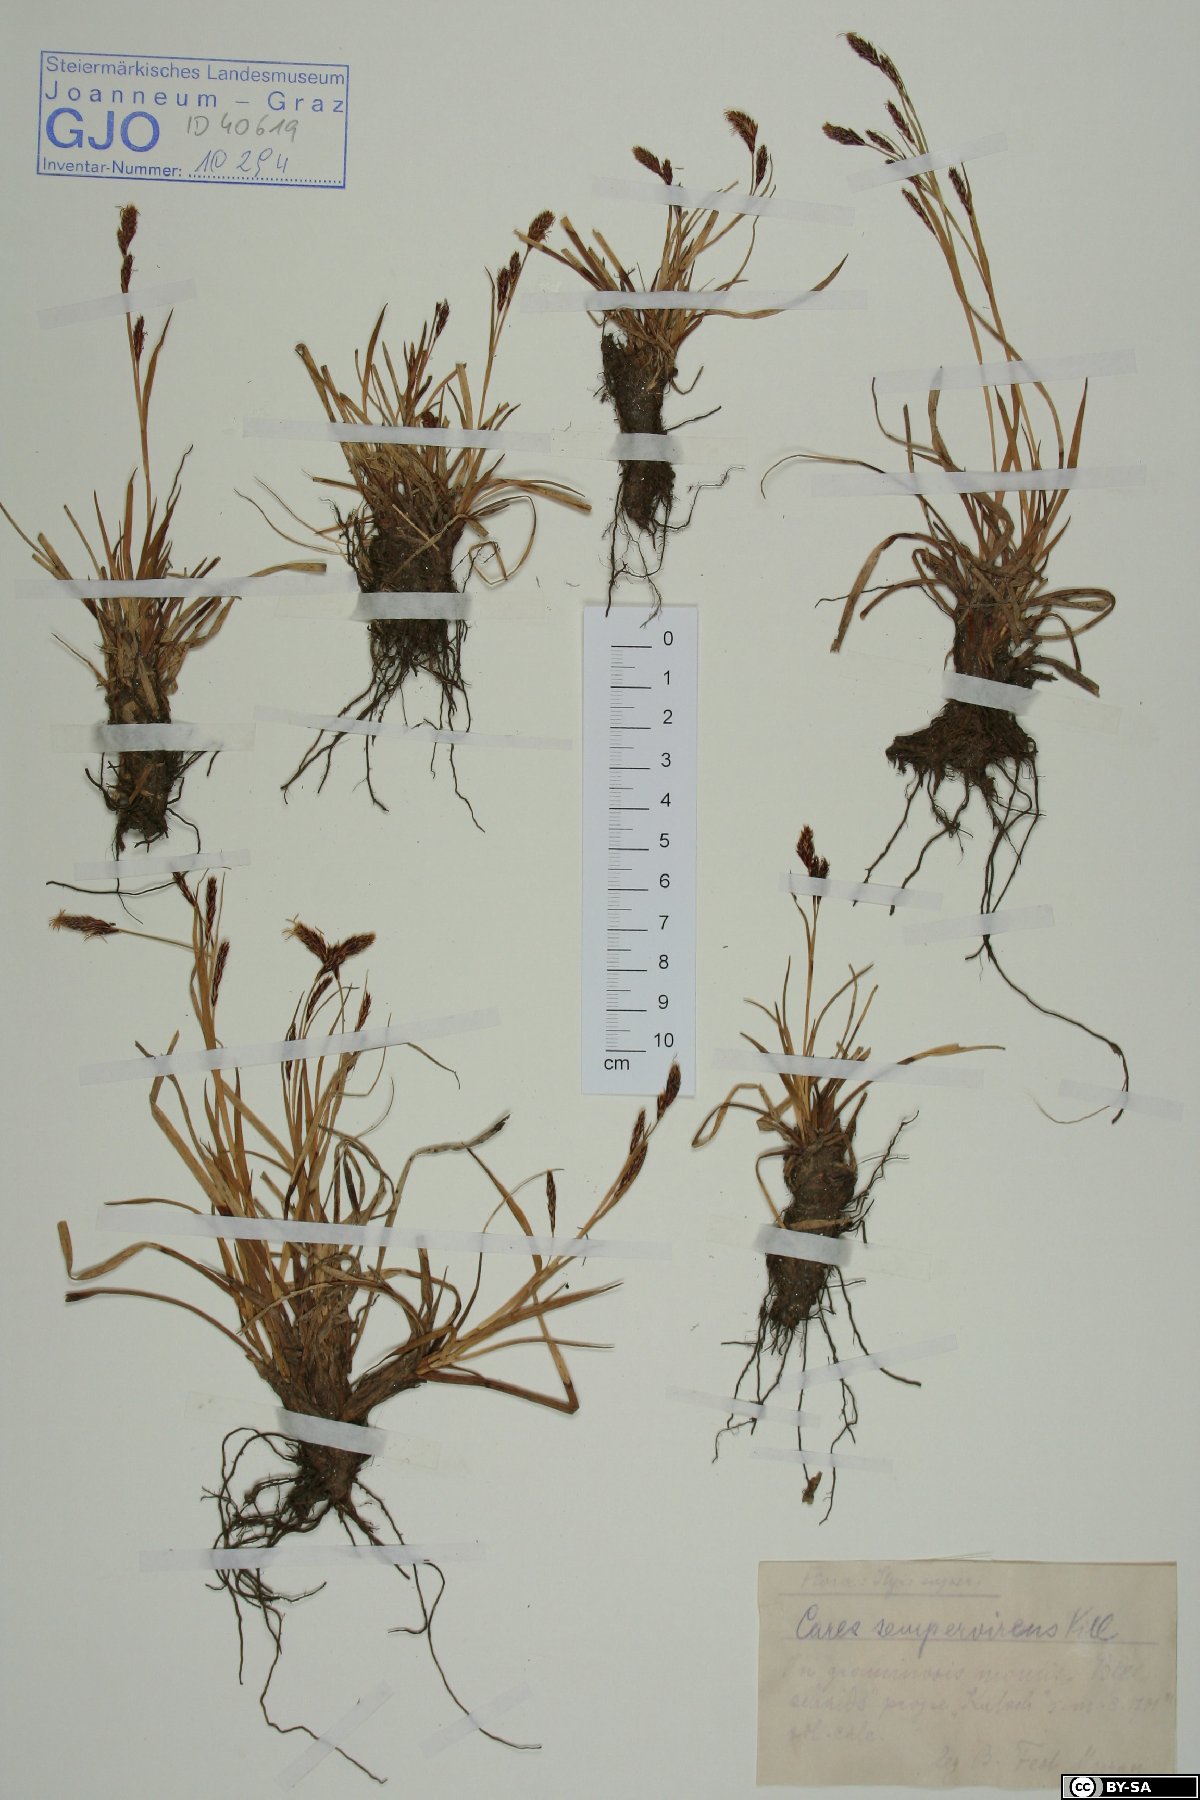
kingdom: Plantae
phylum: Tracheophyta
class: Liliopsida
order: Poales
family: Cyperaceae
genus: Carex
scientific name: Carex sempervirens
